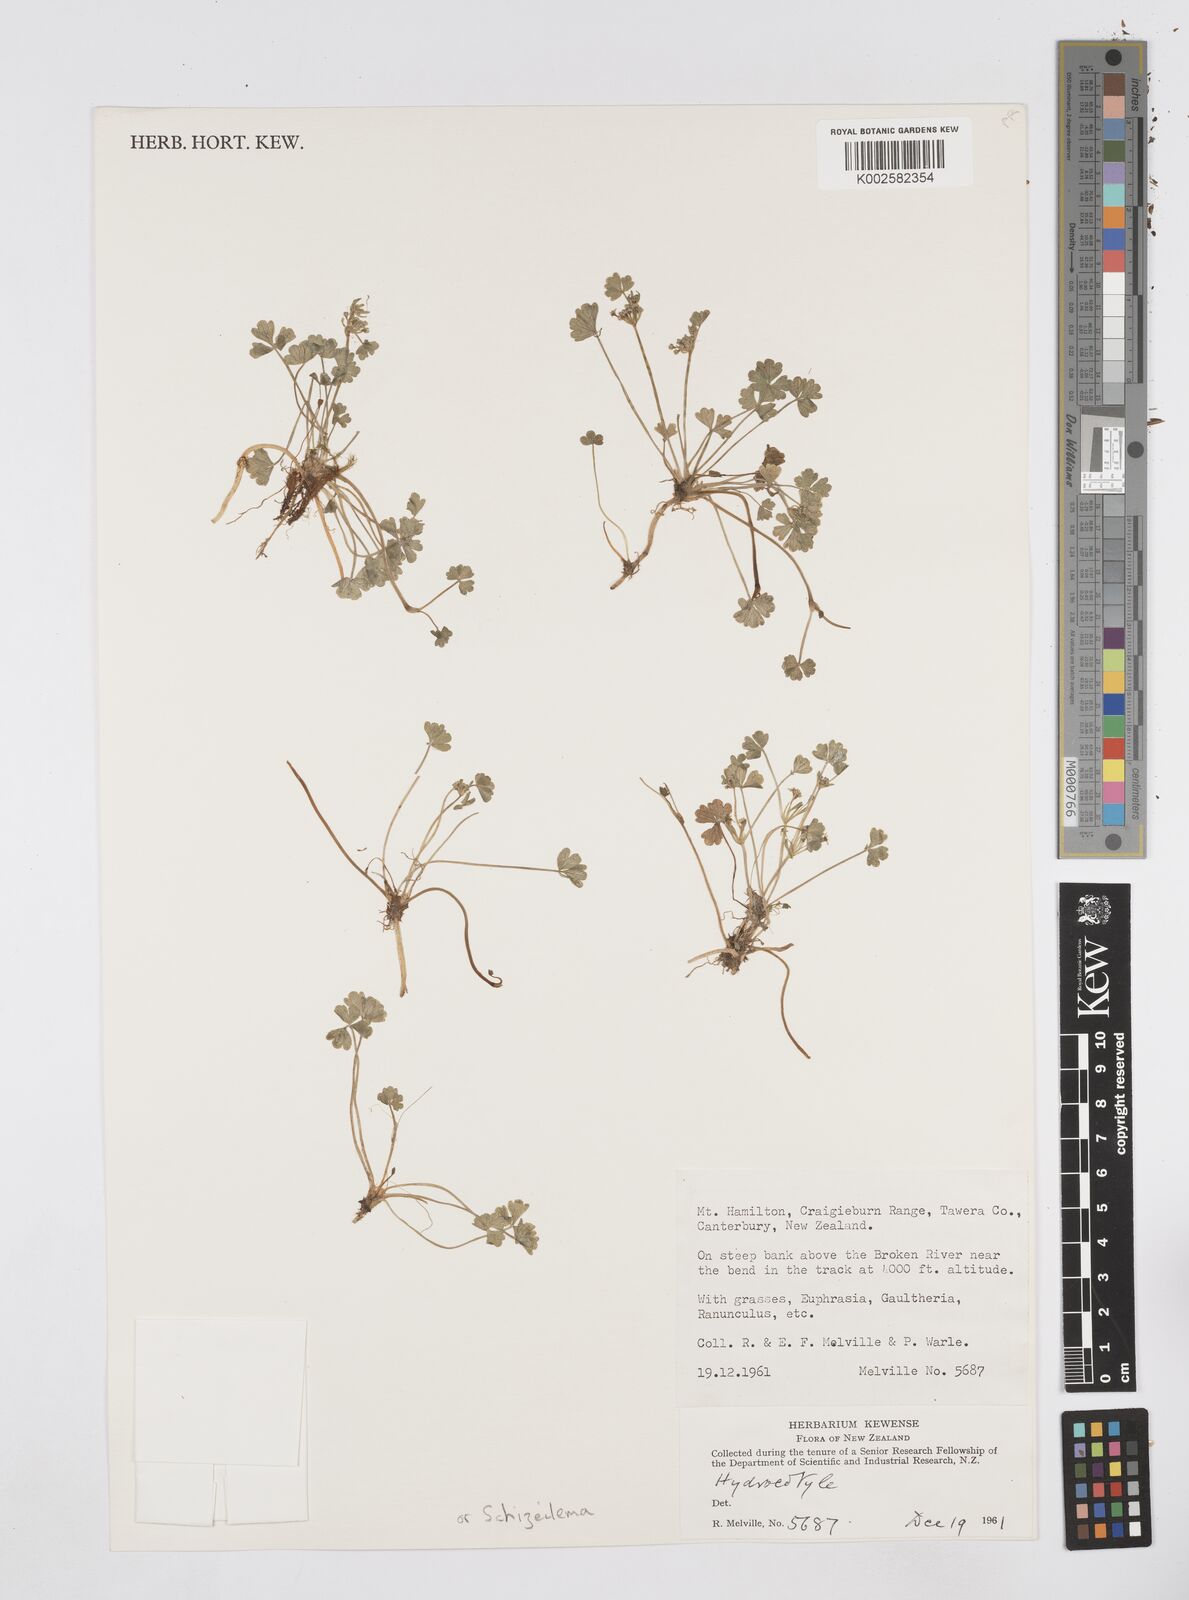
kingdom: Plantae
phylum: Tracheophyta
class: Magnoliopsida
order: Apiales
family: Apiaceae
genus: Azorella
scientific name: Azorella
